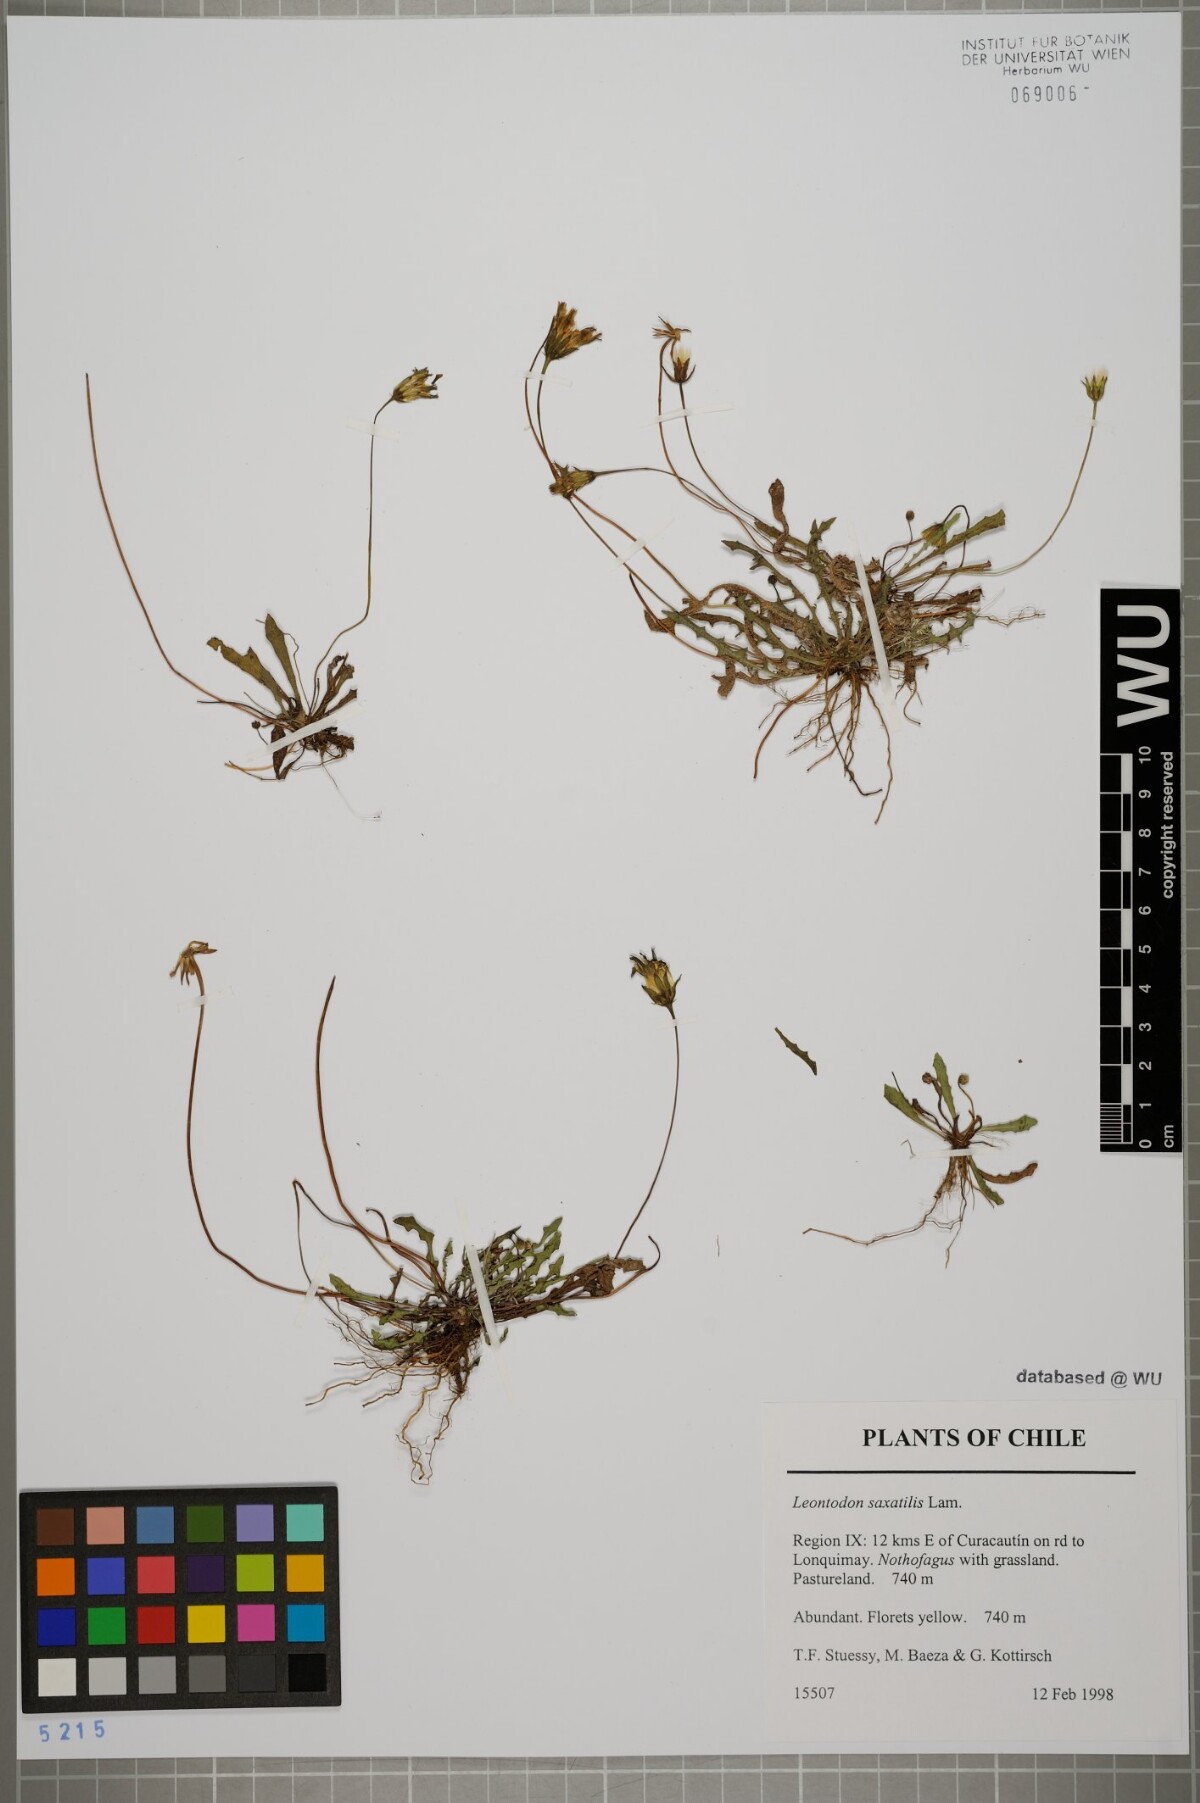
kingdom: Plantae
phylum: Tracheophyta
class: Magnoliopsida
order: Asterales
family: Asteraceae
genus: Thrincia
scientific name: Thrincia saxatilis
